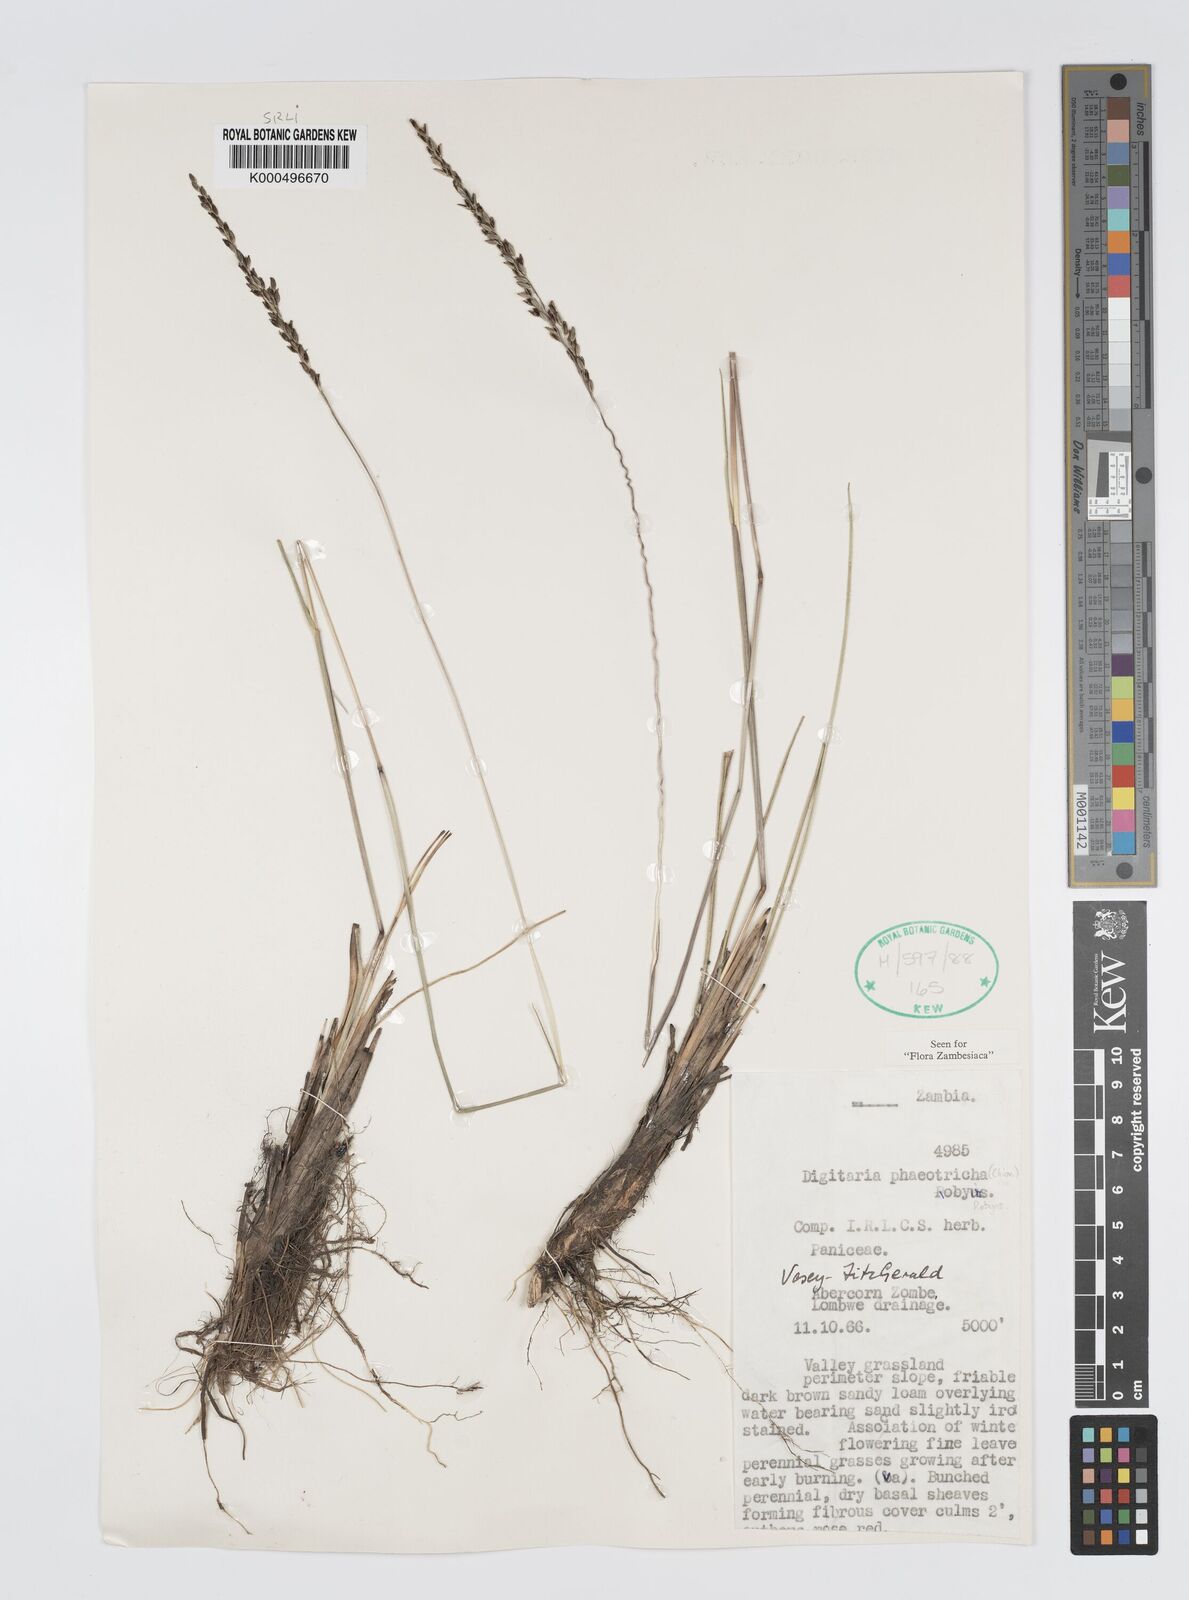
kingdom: Plantae
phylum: Tracheophyta
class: Liliopsida
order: Poales
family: Poaceae
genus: Digitaria
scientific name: Digitaria phaeotricha
